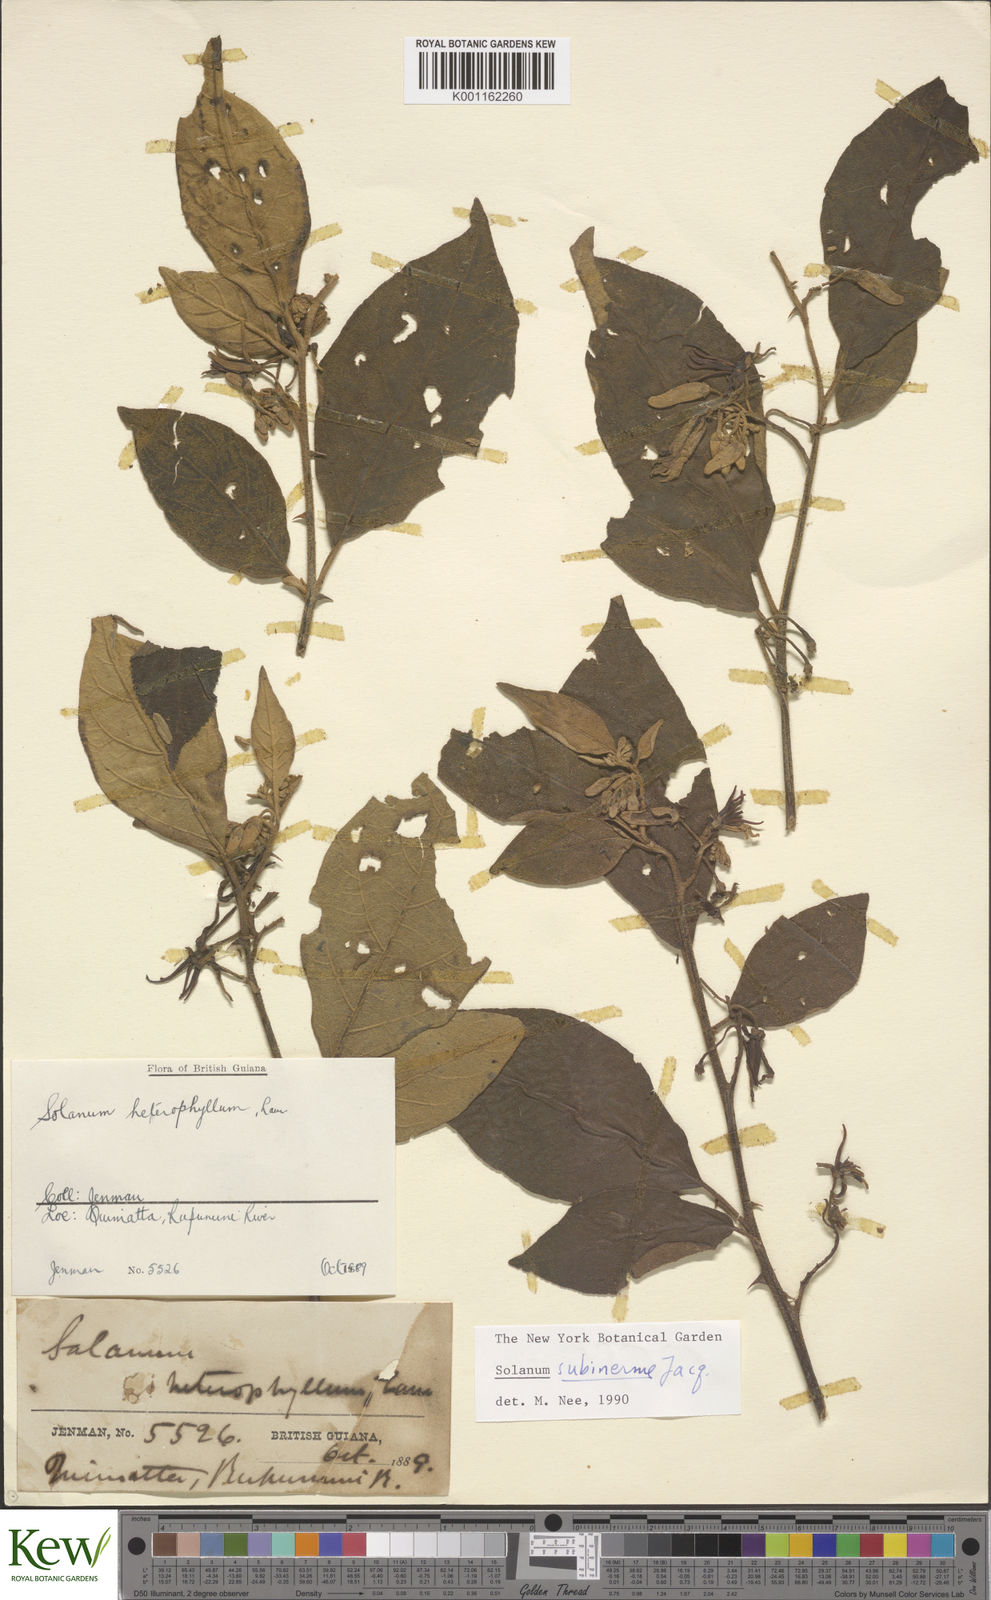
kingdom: Plantae
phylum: Tracheophyta
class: Magnoliopsida
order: Solanales
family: Solanaceae
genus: Solanum
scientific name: Solanum subinerme
